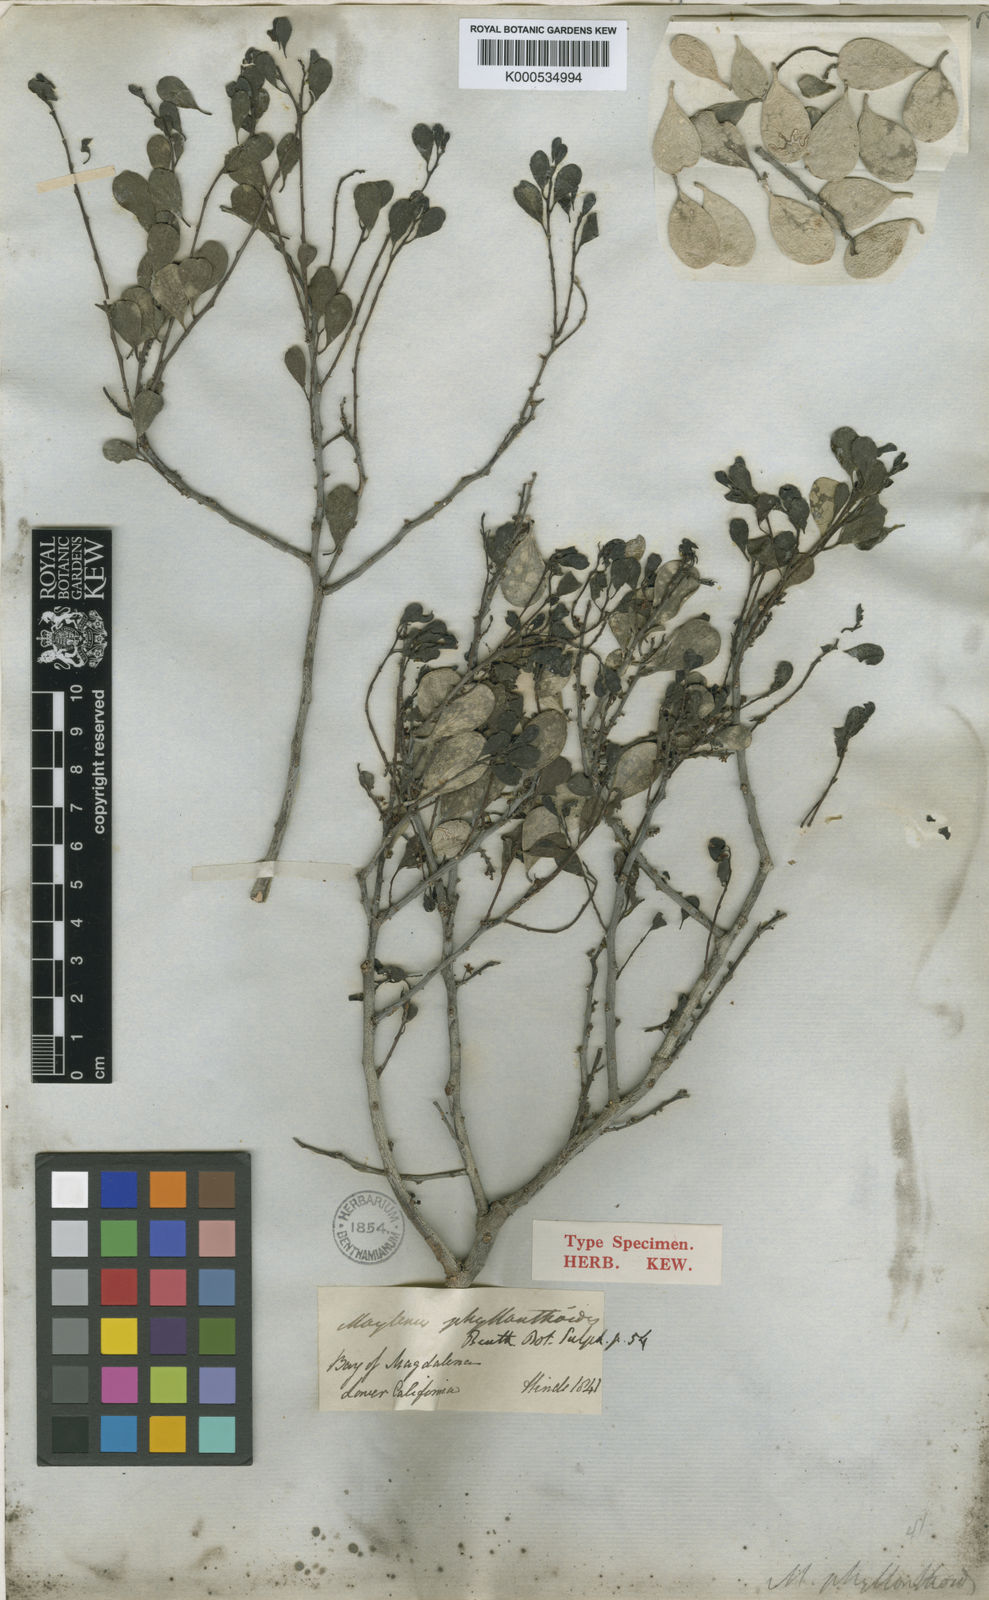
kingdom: Plantae
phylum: Tracheophyta
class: Magnoliopsida
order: Celastrales
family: Celastraceae
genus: Tricerma
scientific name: Tricerma phyllanthoides
